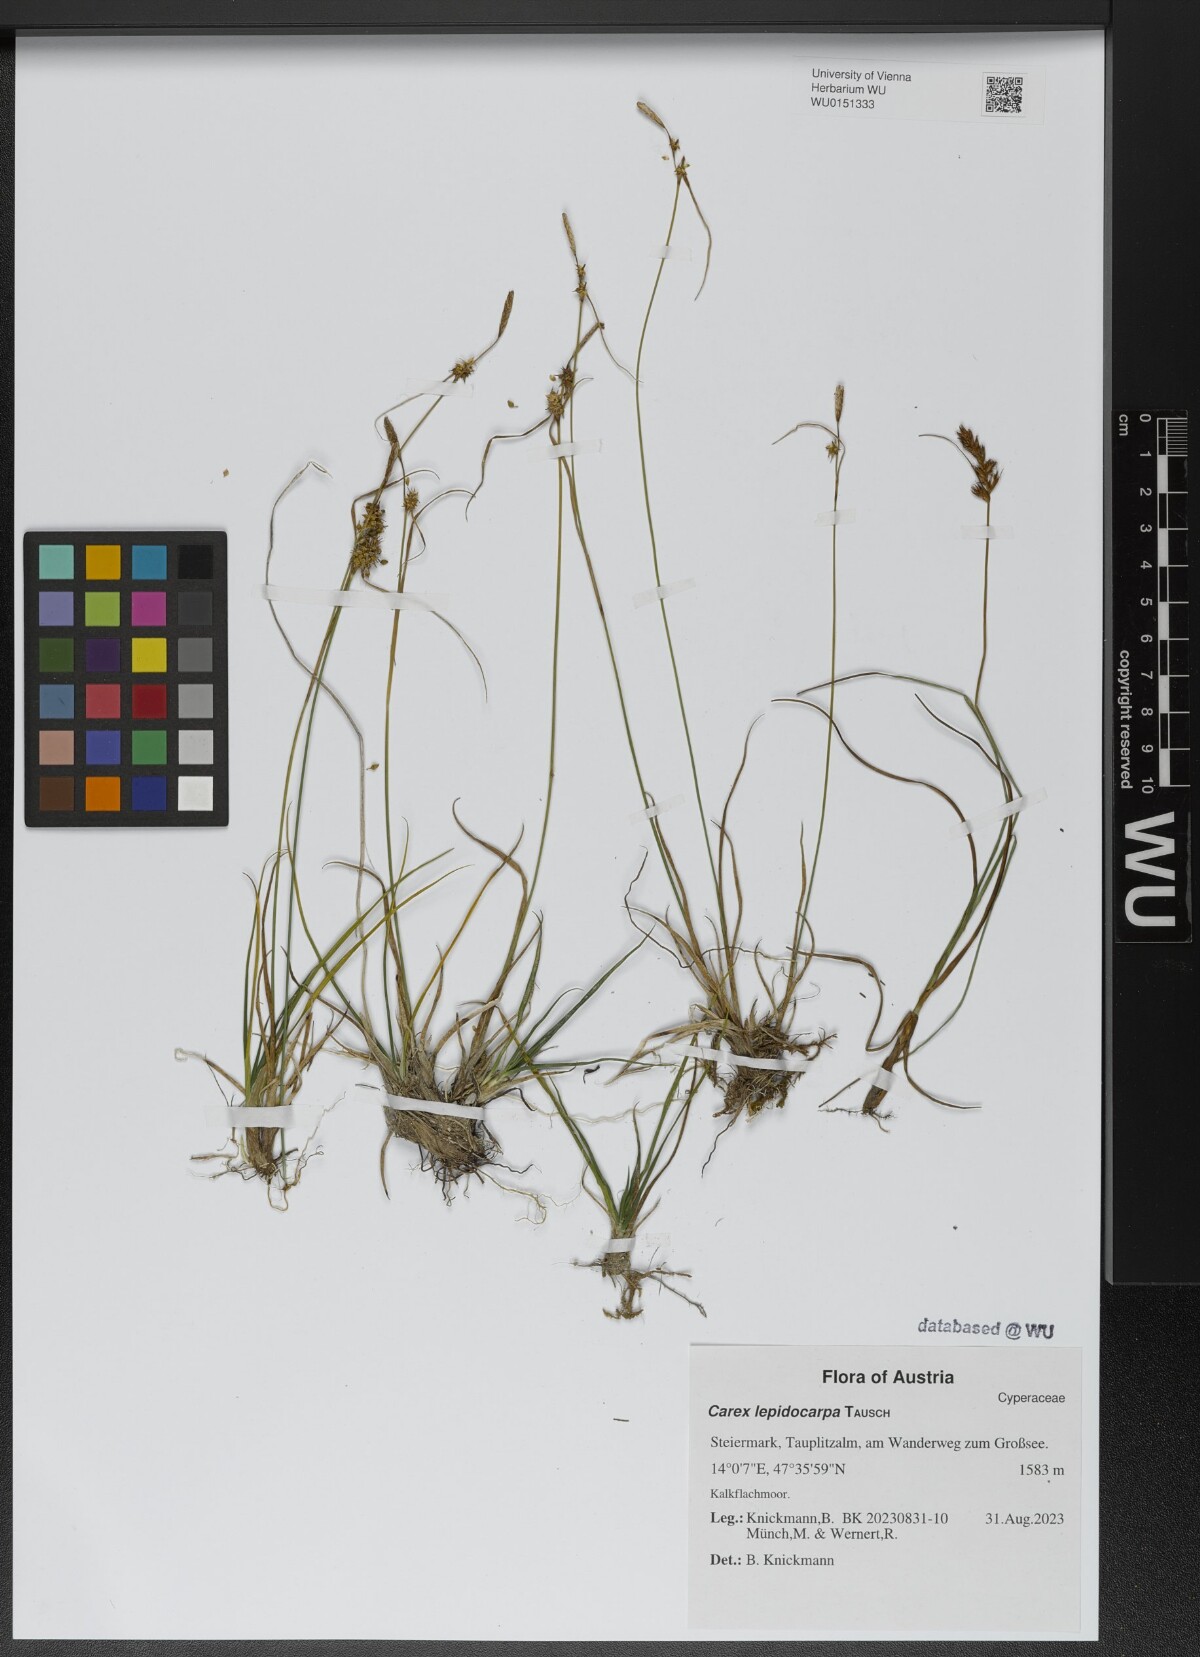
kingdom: Plantae
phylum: Tracheophyta
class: Liliopsida
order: Poales
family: Cyperaceae
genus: Carex
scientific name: Carex lepidocarpa
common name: Long-stalked yellow-sedge
